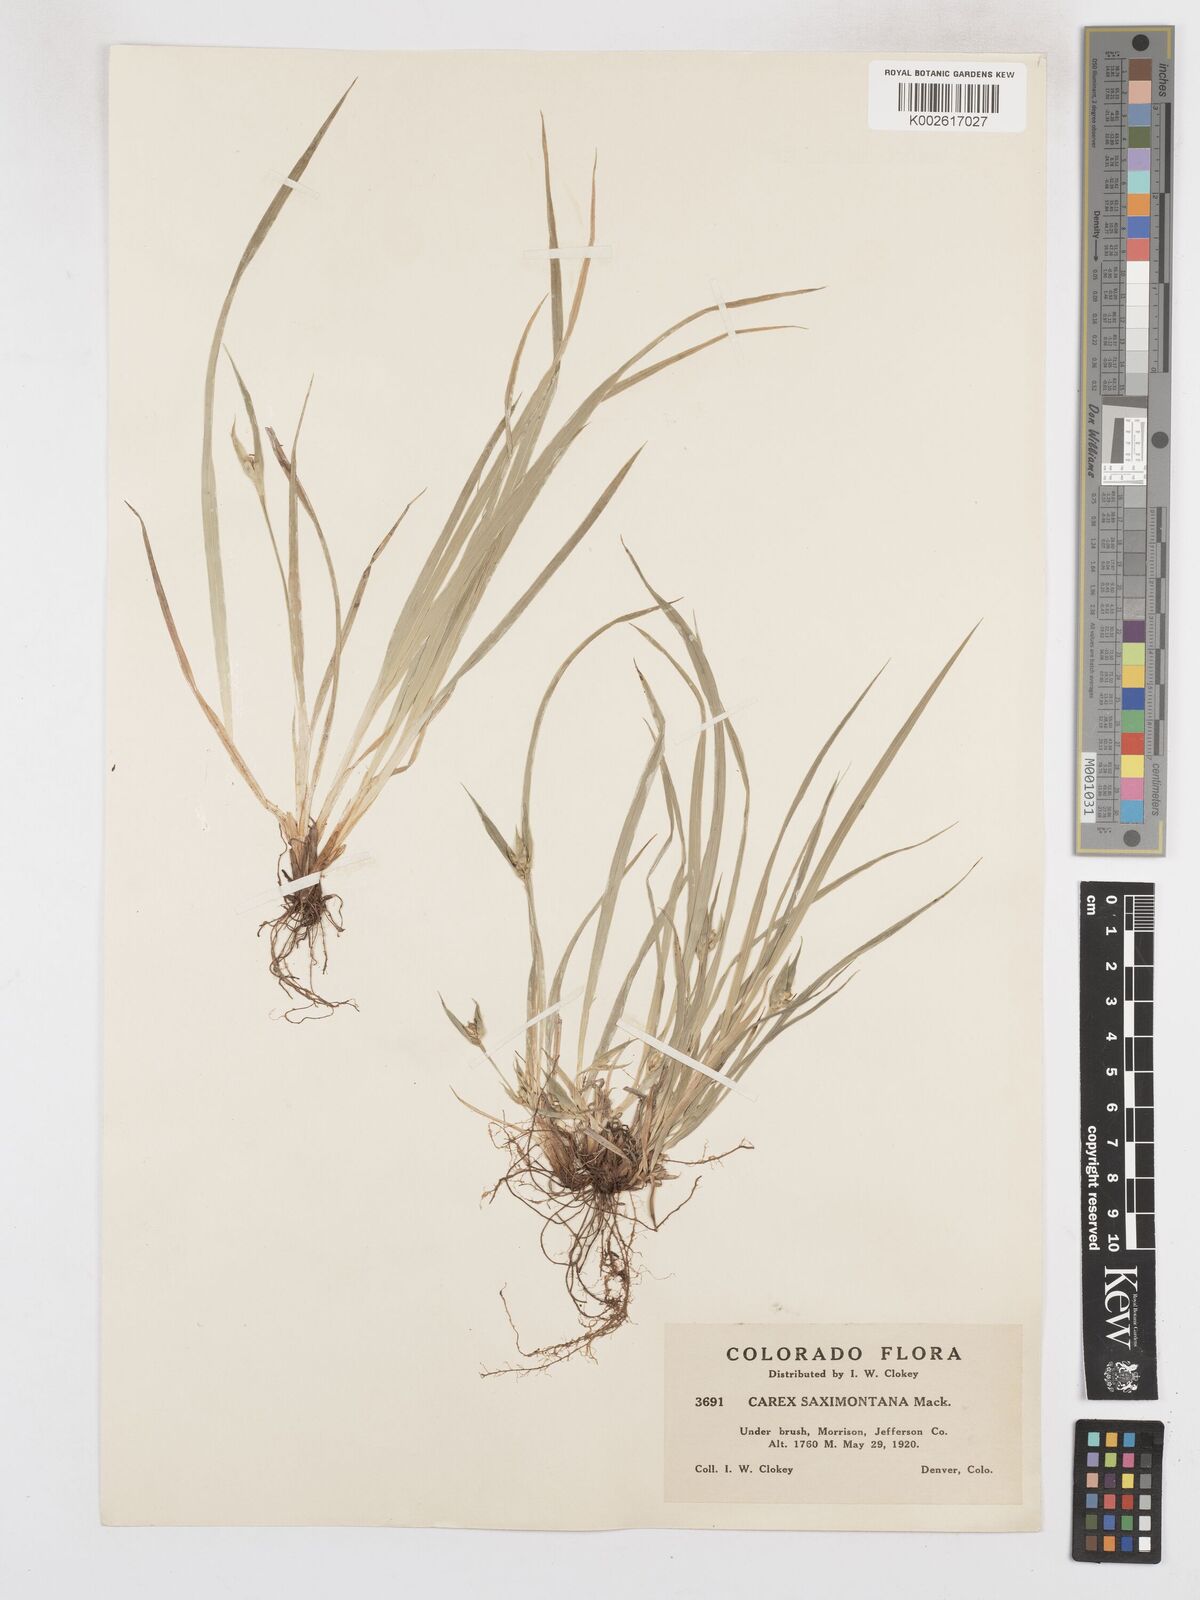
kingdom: Plantae
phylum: Tracheophyta
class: Liliopsida
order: Poales
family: Cyperaceae
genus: Carex
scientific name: Carex saximontana
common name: Rocky mountain sedge
